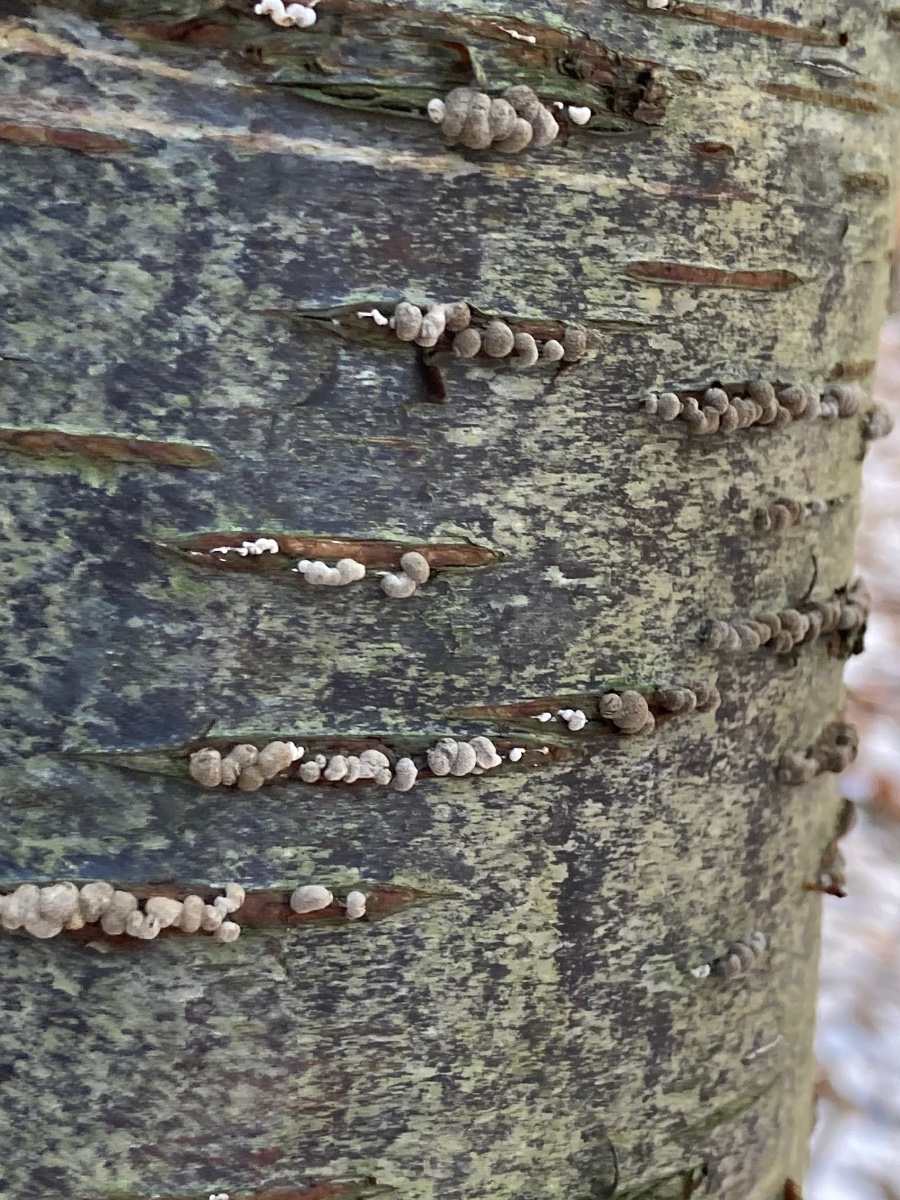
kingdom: Fungi
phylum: Basidiomycota
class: Atractiellomycetes
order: Atractiellales
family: Phleogenaceae
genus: Phleogena
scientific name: Phleogena faginea
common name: pudderkølle
